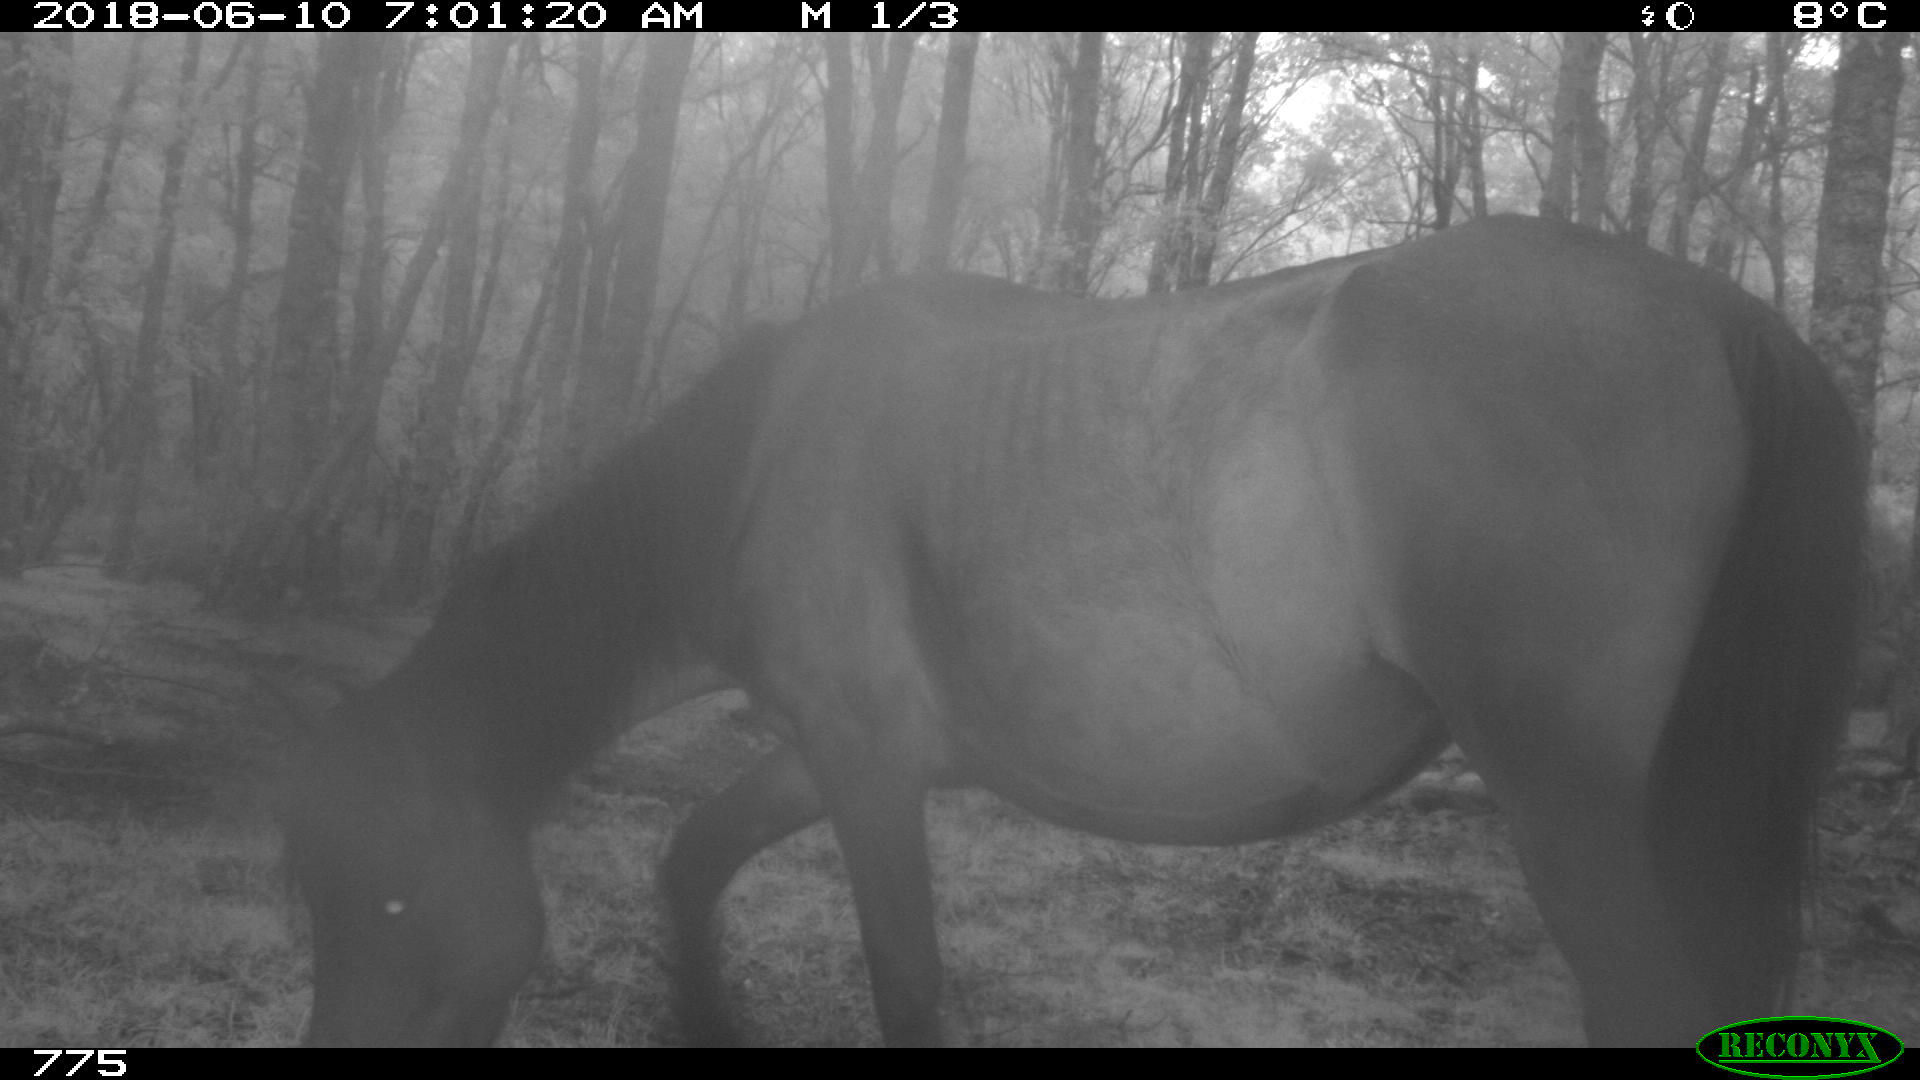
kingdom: Animalia
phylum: Chordata
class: Mammalia
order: Perissodactyla
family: Equidae
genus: Equus
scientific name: Equus caballus
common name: Horse
